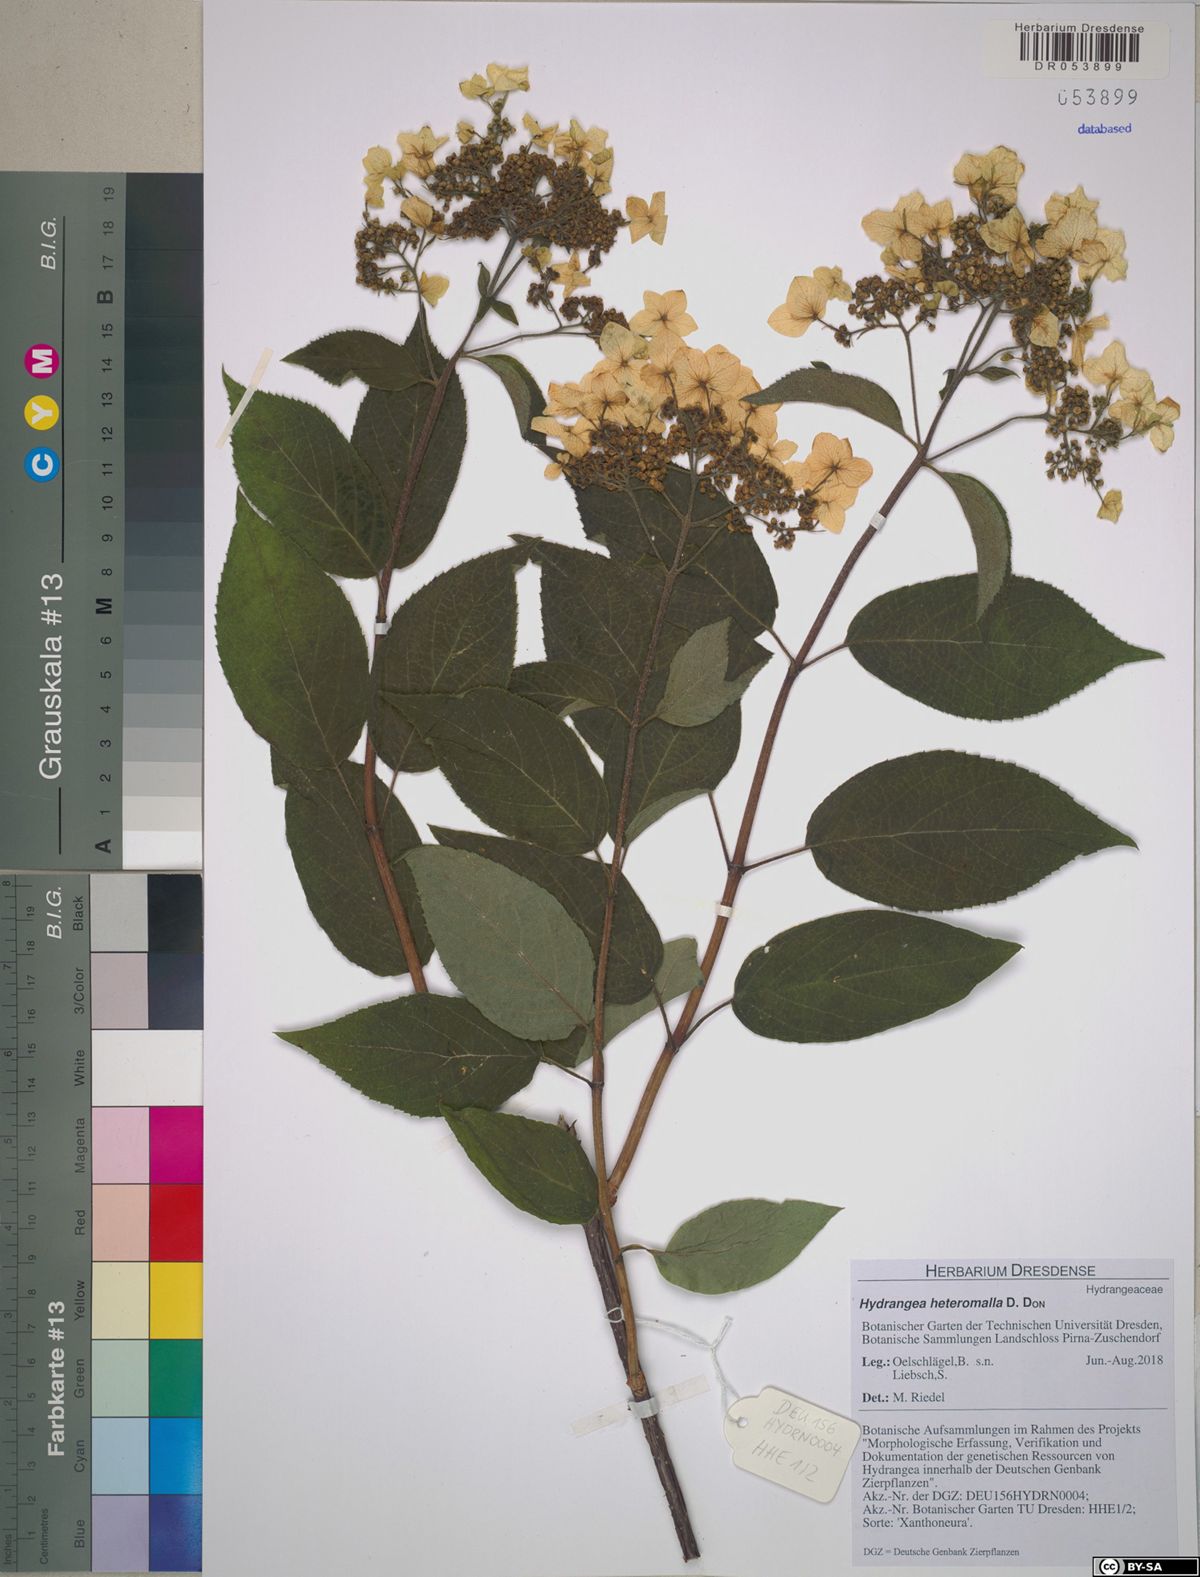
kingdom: Plantae
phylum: Tracheophyta
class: Magnoliopsida
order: Cornales
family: Hydrangeaceae
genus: Hydrangea
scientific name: Hydrangea heteromalla
